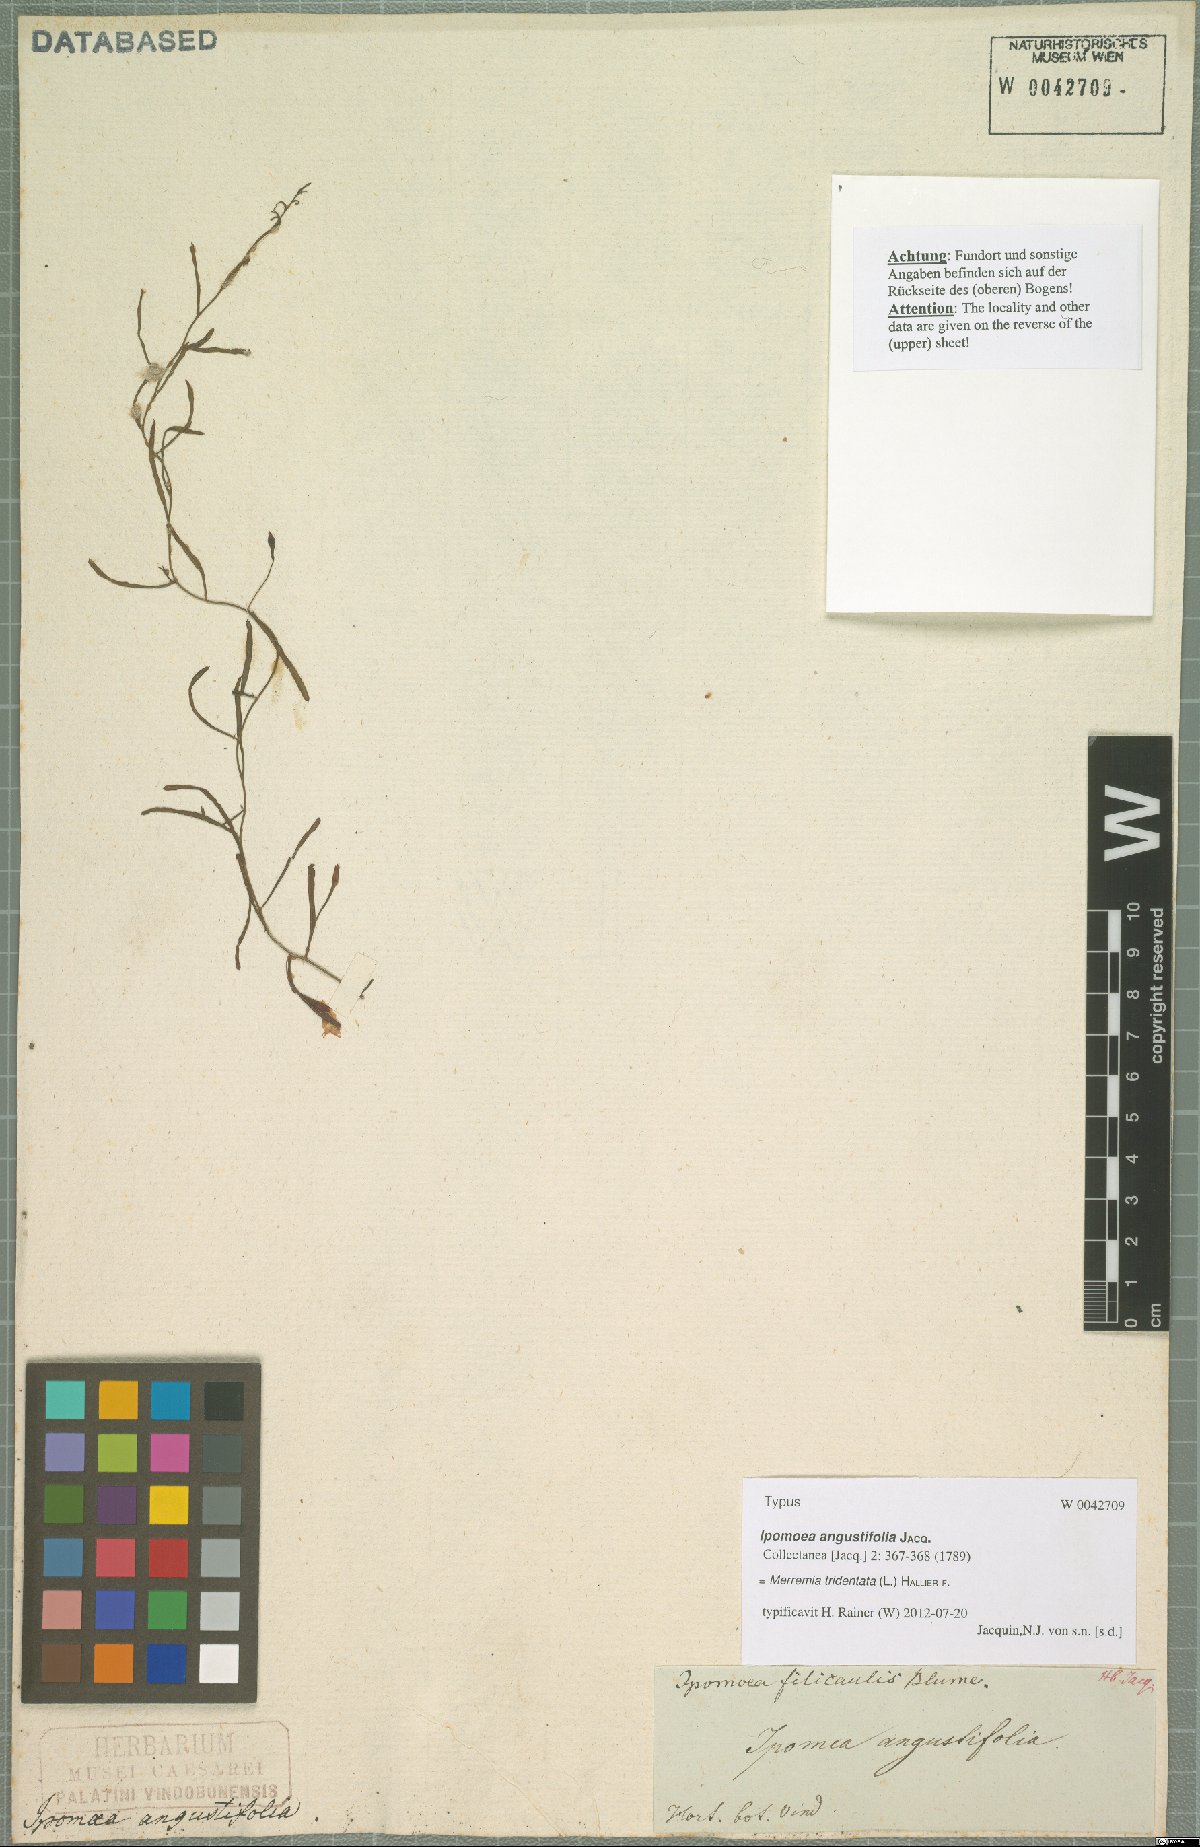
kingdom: Plantae
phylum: Tracheophyta
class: Magnoliopsida
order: Solanales
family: Convolvulaceae
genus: Xenostegia
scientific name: Xenostegia tridentata
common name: African morningvine
